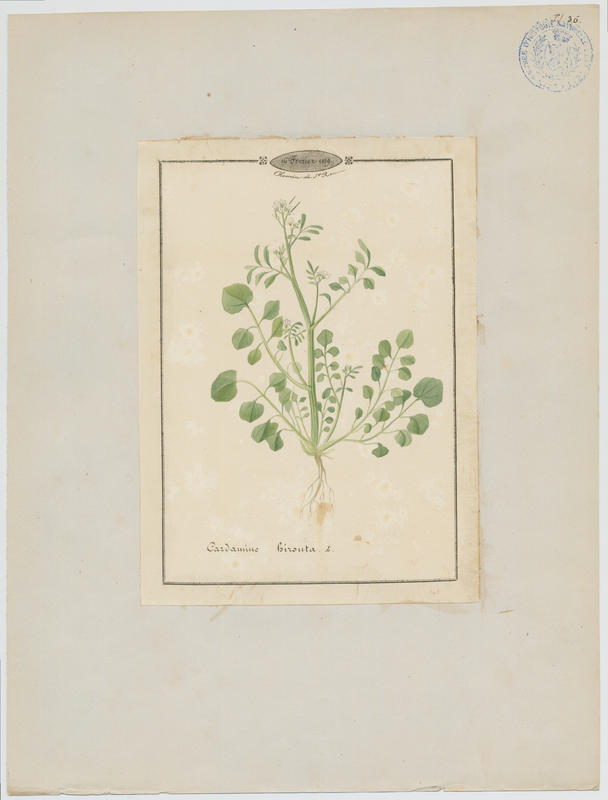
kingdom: Plantae
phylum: Tracheophyta
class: Magnoliopsida
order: Brassicales
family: Brassicaceae
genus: Cardamine
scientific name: Cardamine hirsuta
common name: Hairy bittercress
